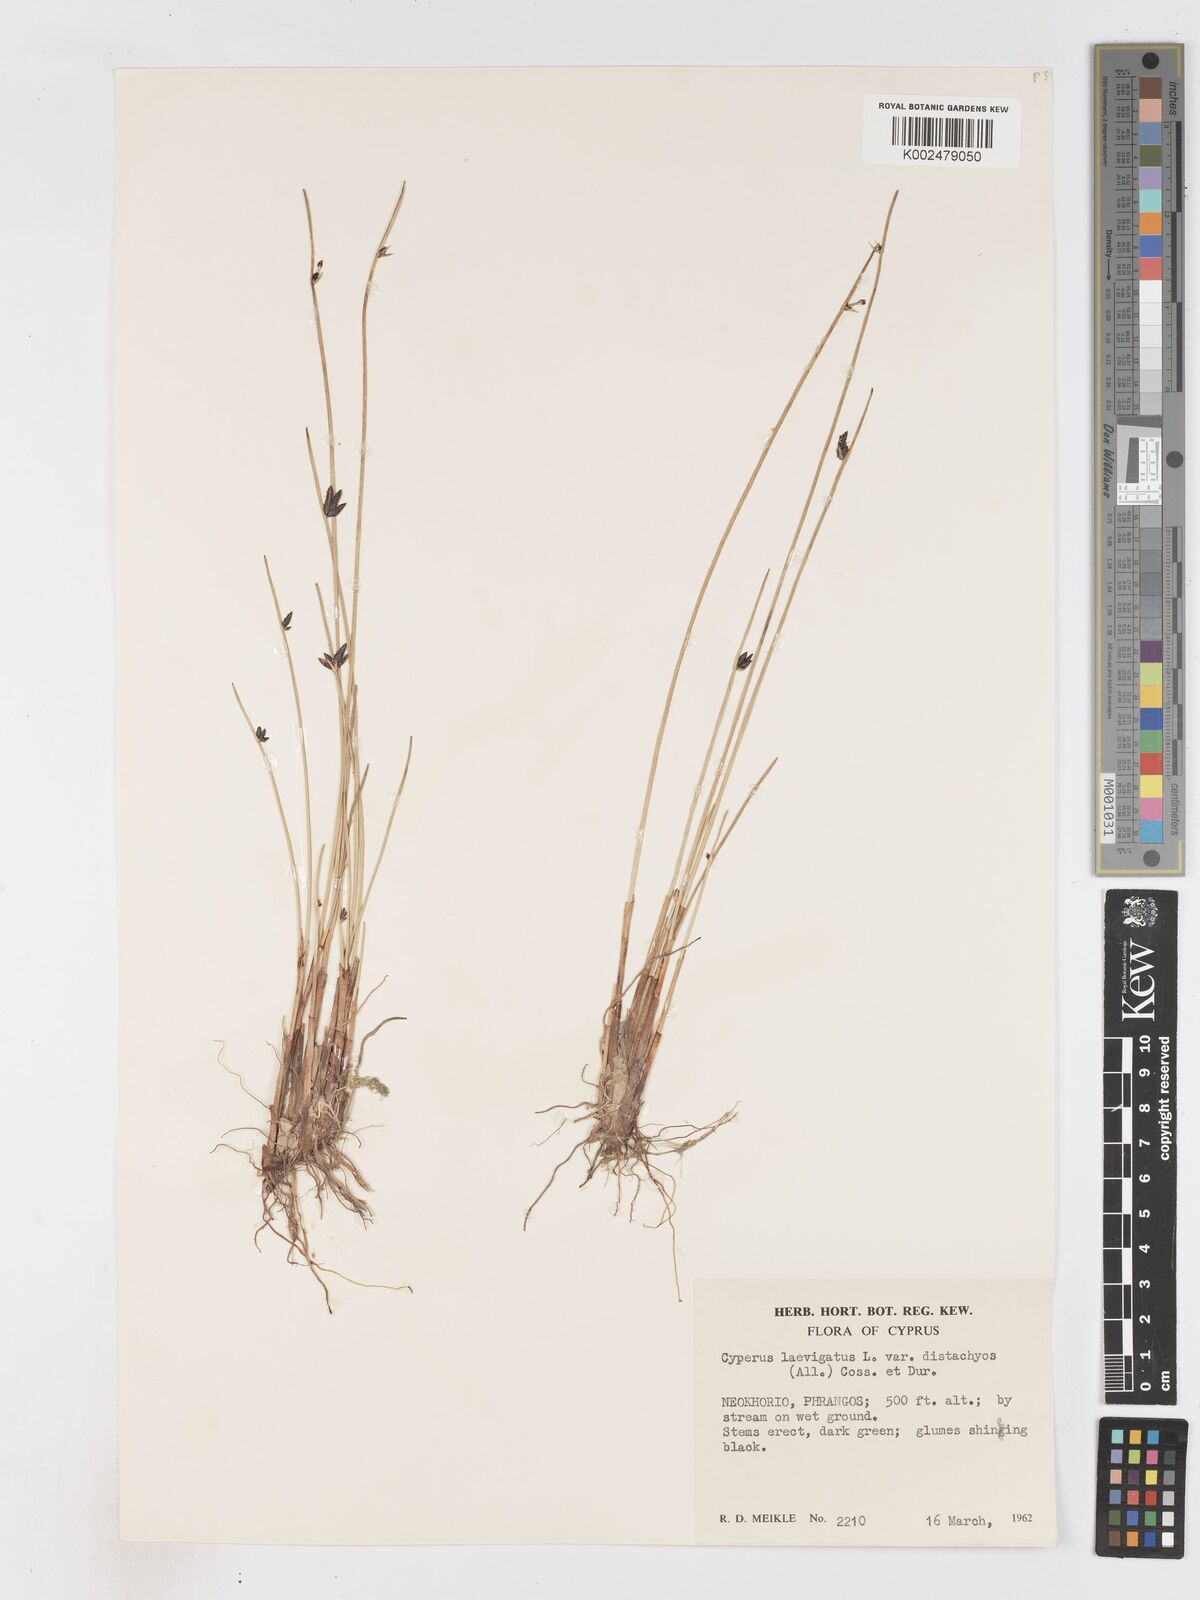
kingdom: Plantae
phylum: Tracheophyta
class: Liliopsida
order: Poales
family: Cyperaceae
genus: Cyperus
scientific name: Cyperus laevigatus
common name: Smooth flat sedge
